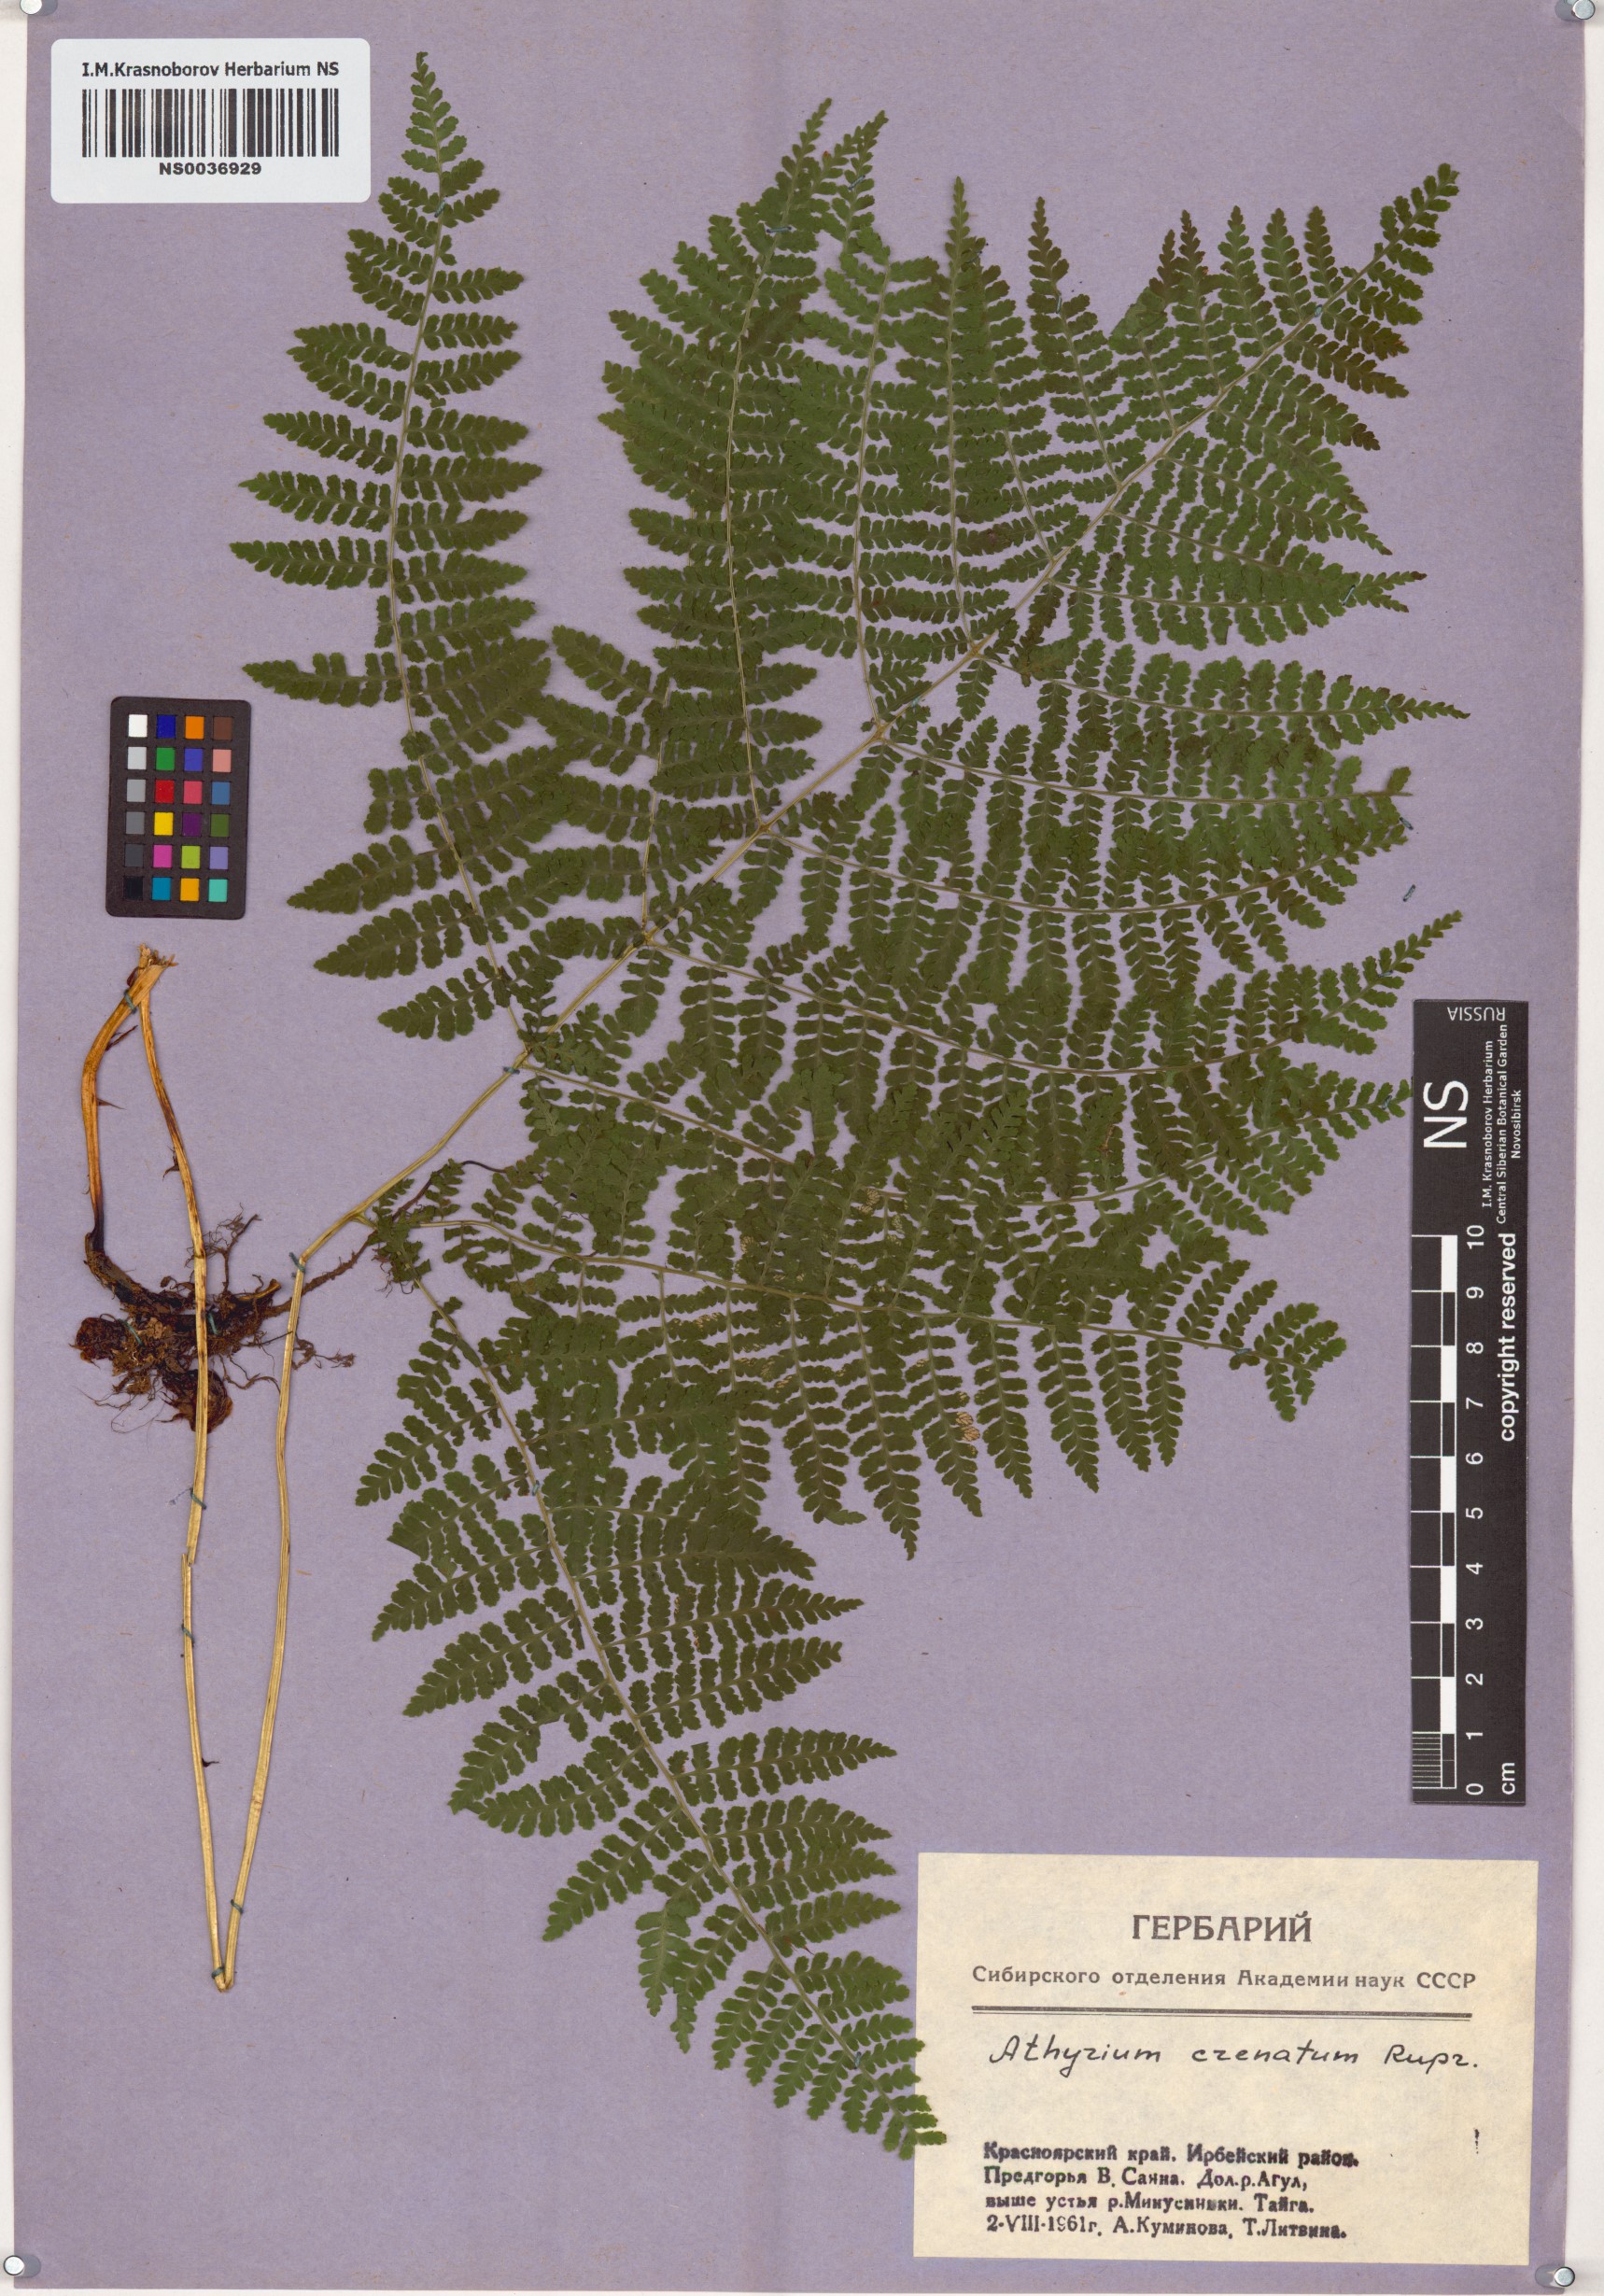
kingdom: Plantae
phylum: Tracheophyta
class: Polypodiopsida
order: Polypodiales
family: Athyriaceae
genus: Diplazium
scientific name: Diplazium sibiricum
